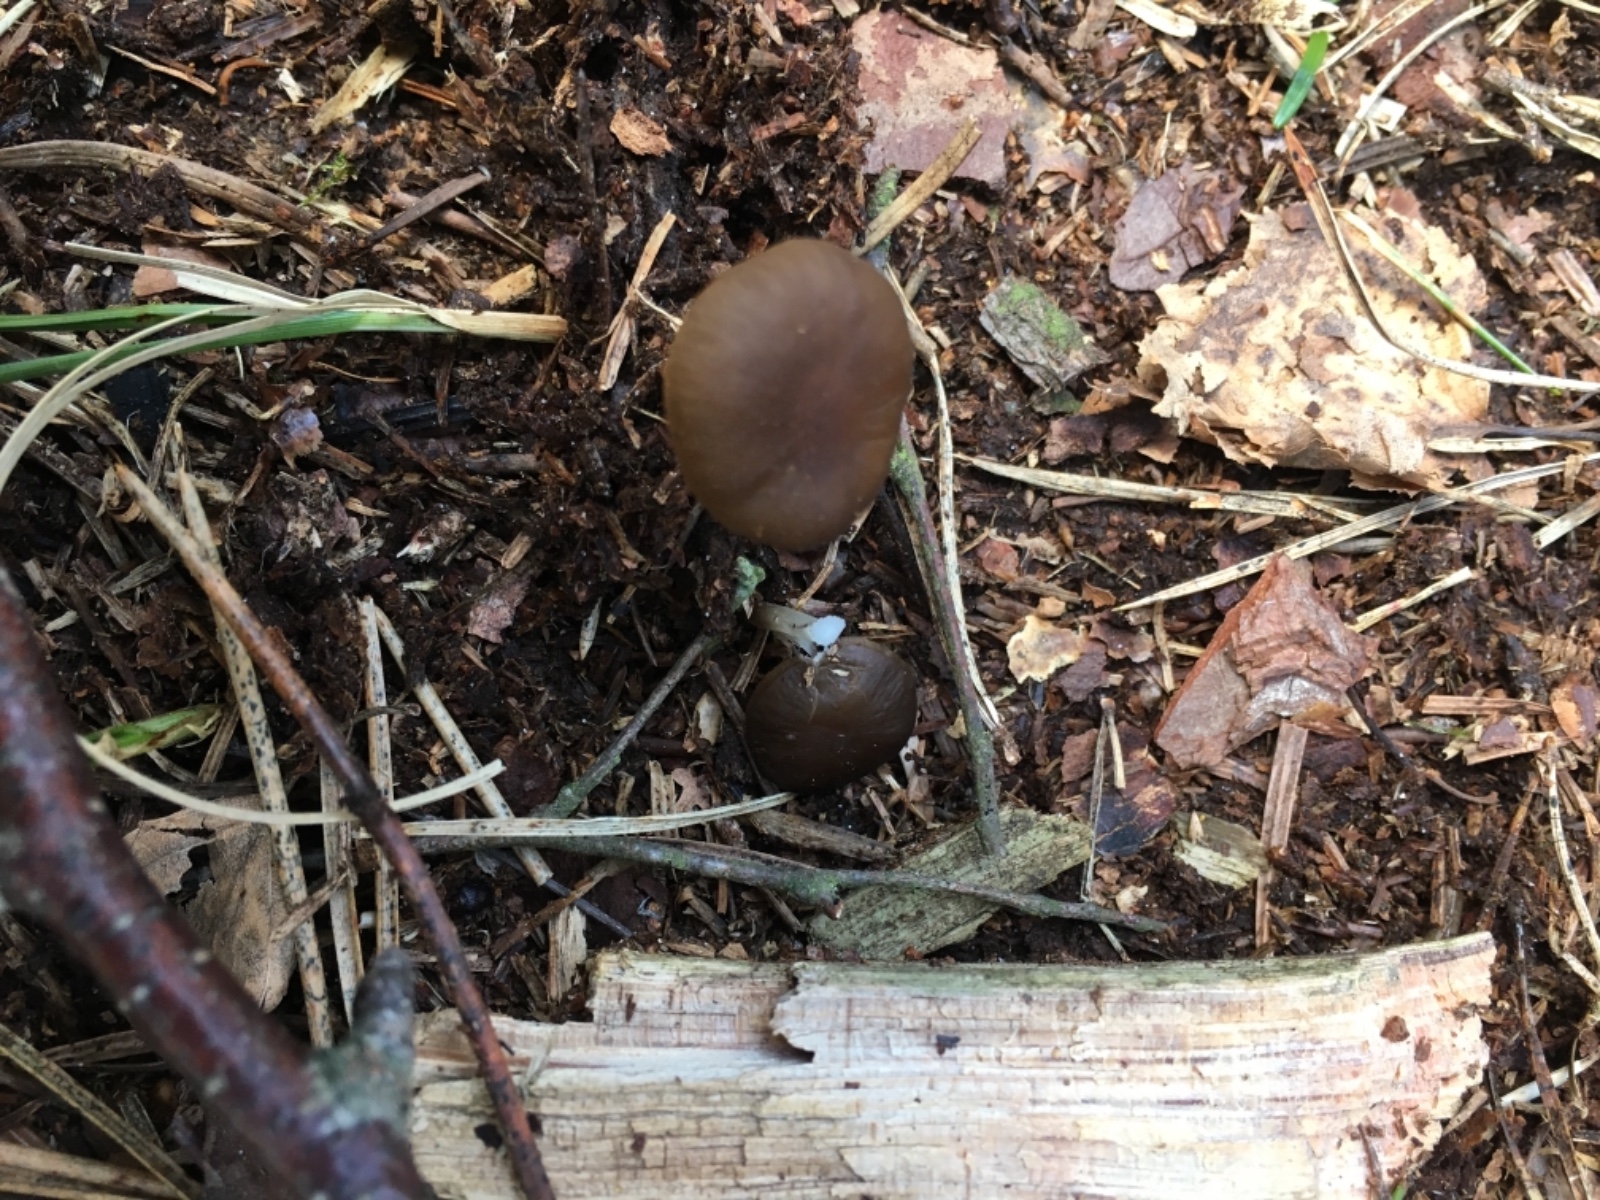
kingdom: Fungi
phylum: Basidiomycota
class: Agaricomycetes
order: Agaricales
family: Physalacriaceae
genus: Strobilurus
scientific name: Strobilurus esculentus
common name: gran-koglehat
